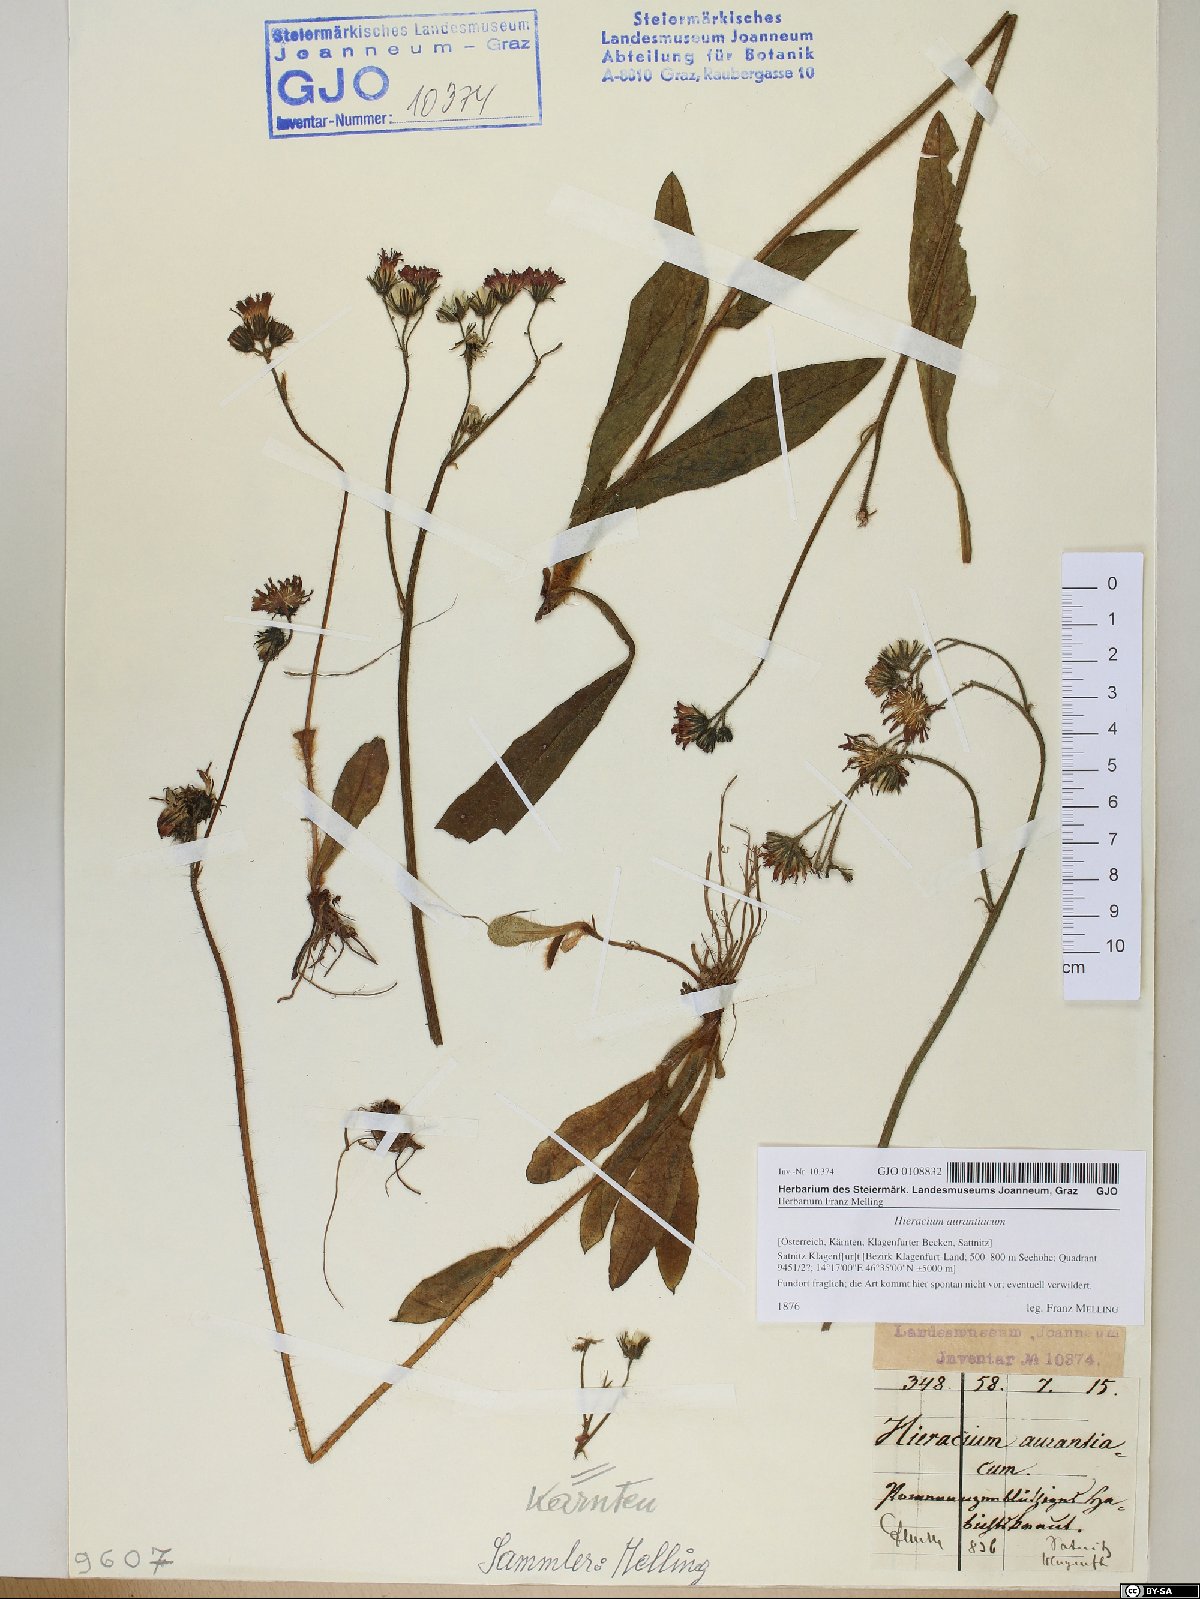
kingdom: Plantae
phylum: Tracheophyta
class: Magnoliopsida
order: Asterales
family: Asteraceae
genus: Pilosella
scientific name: Pilosella aurantiaca
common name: Fox-and-cubs
